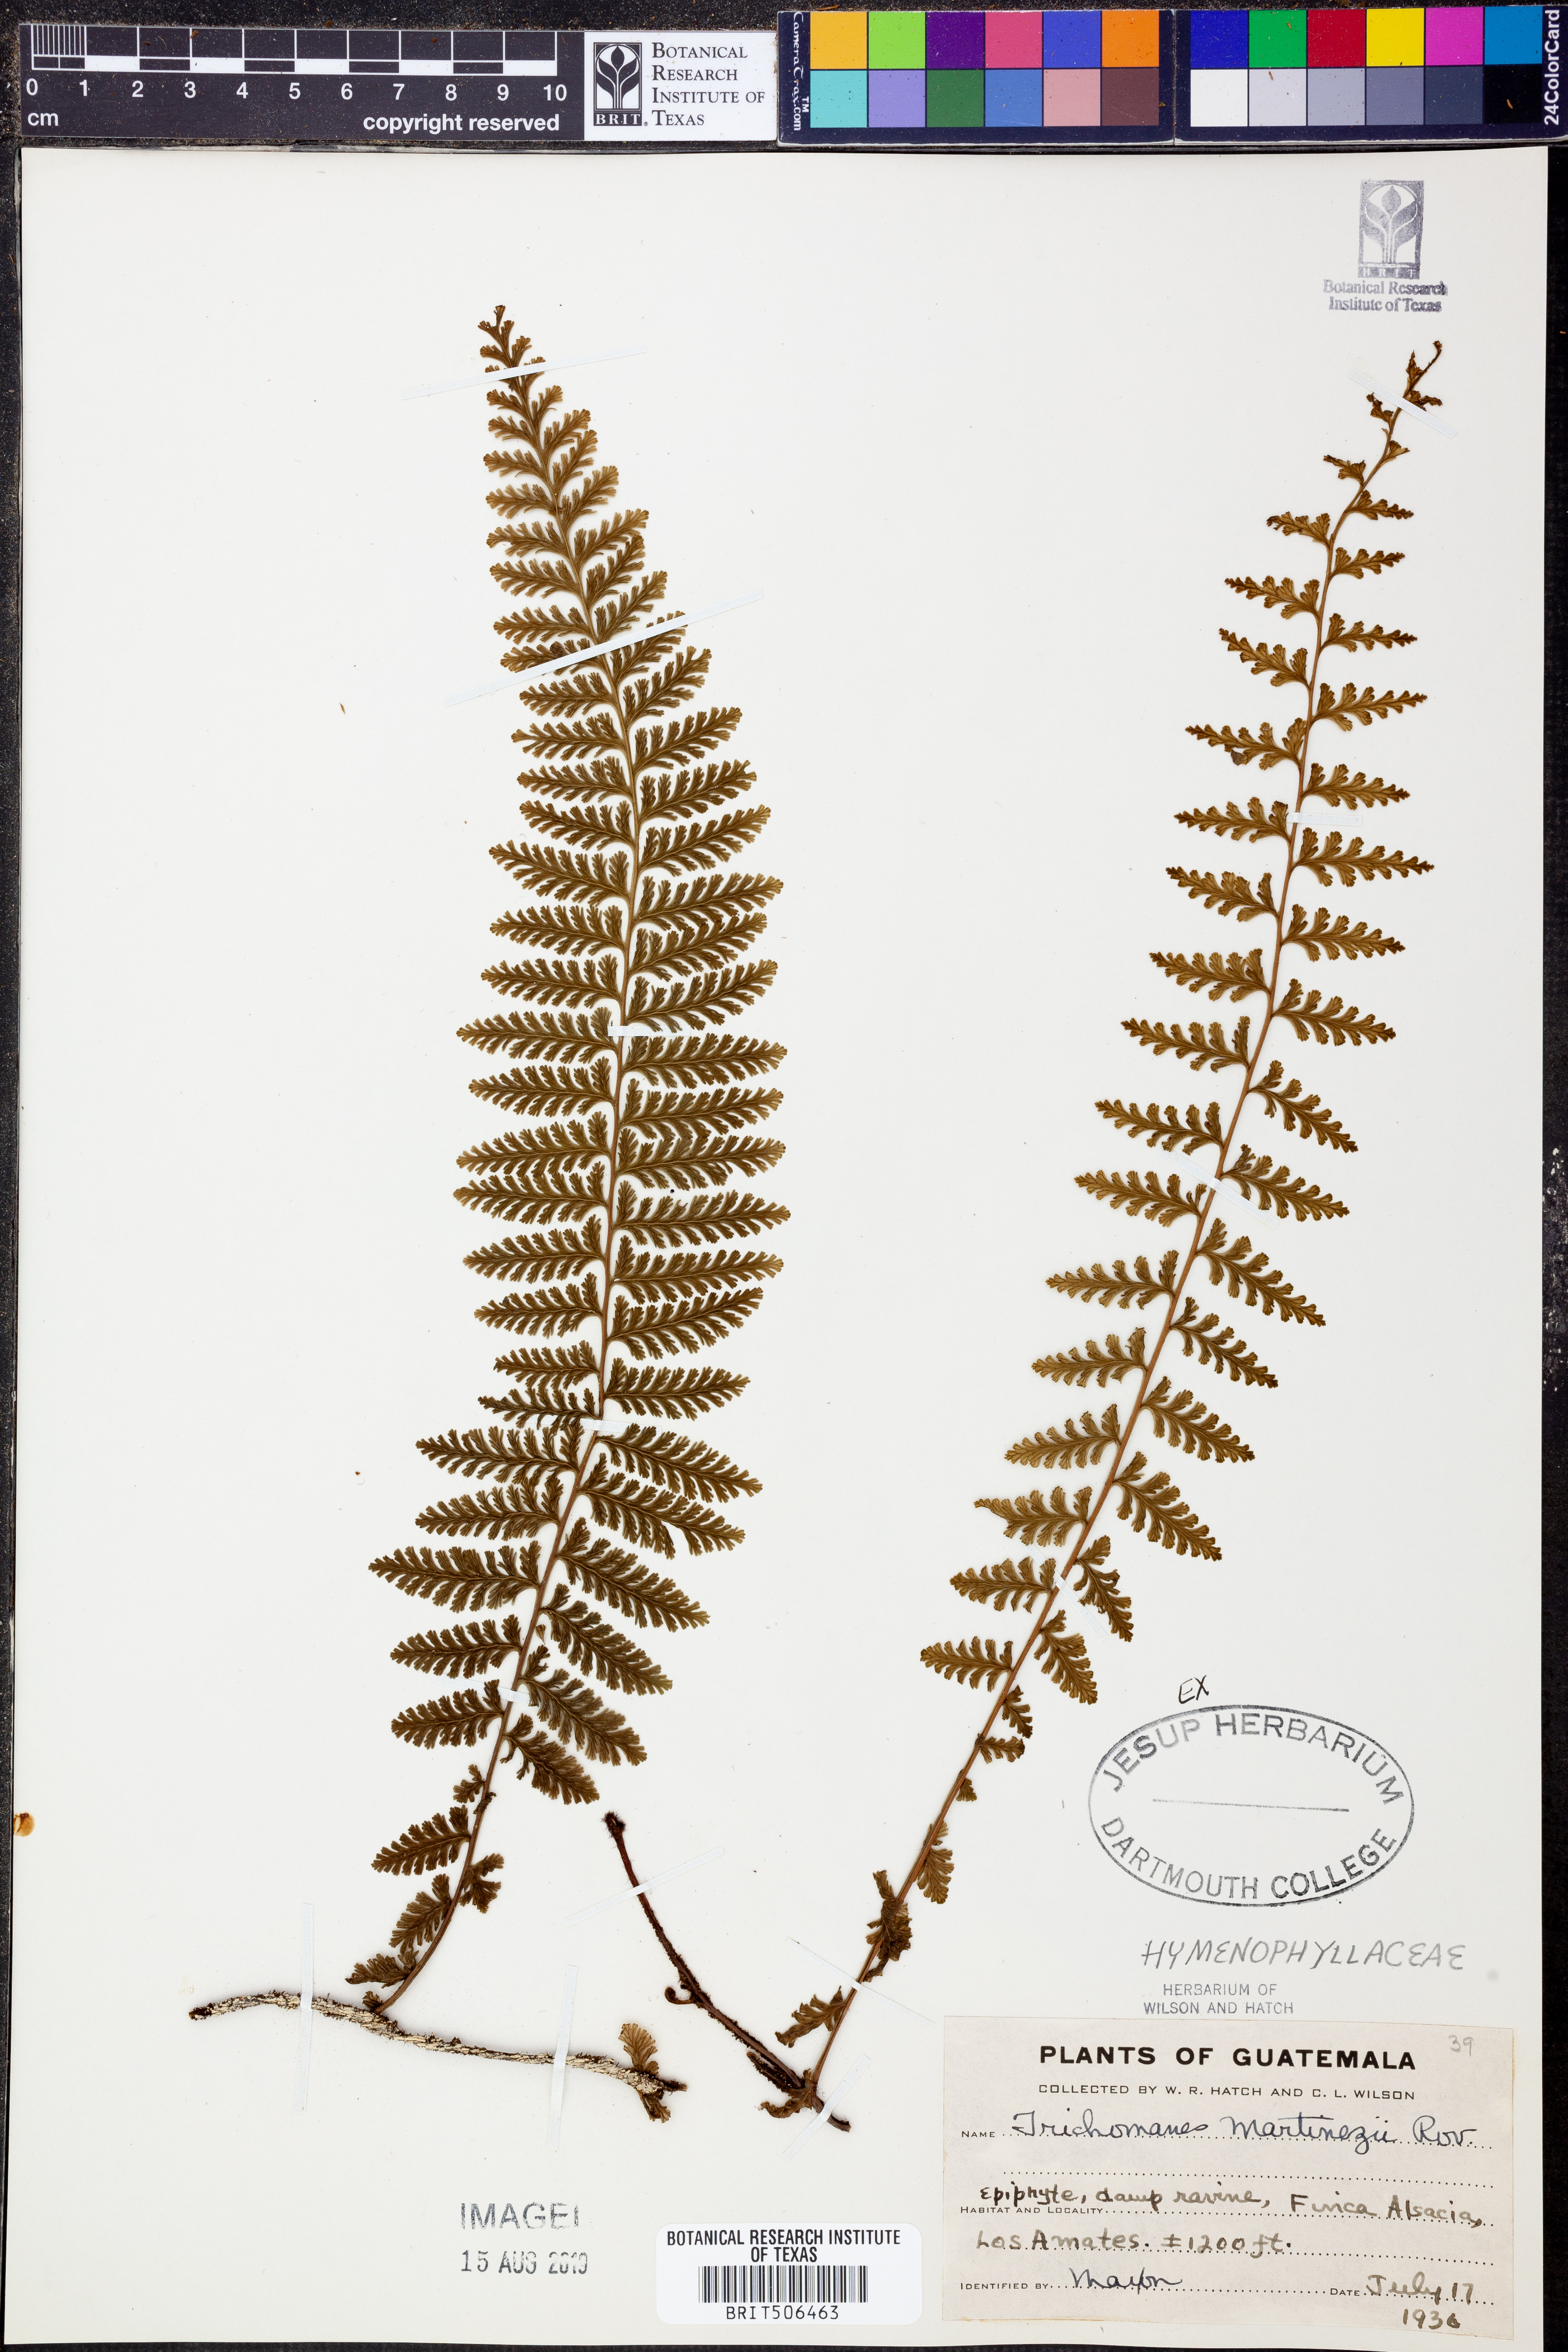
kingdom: Plantae
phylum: Tracheophyta
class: Polypodiopsida
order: Hymenophyllales
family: Hymenophyllaceae
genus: Vandenboschia
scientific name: Vandenboschia collariata
